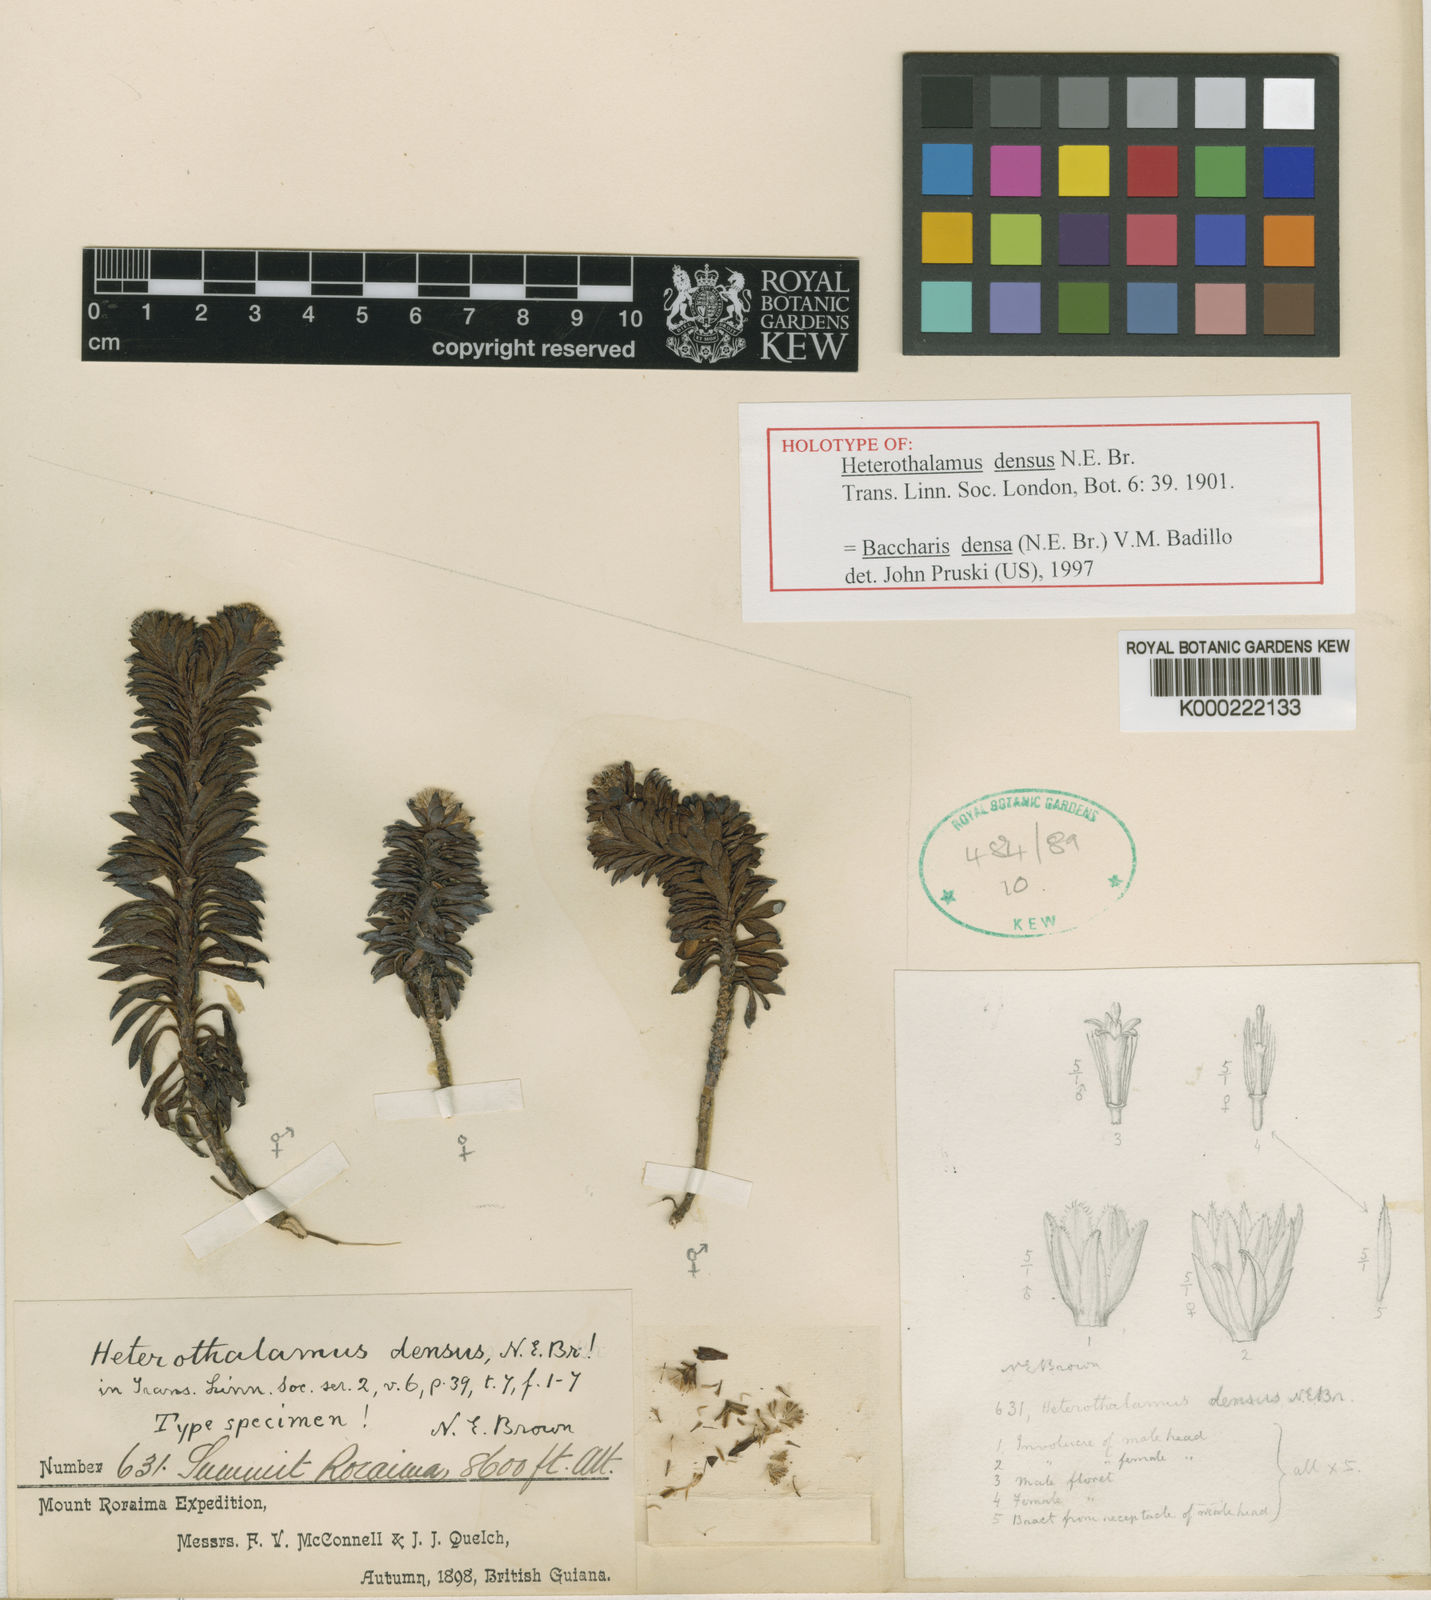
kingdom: Plantae
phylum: Tracheophyta
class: Magnoliopsida
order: Asterales
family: Asteraceae
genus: Pseudobaccharis
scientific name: Pseudobaccharis densa
